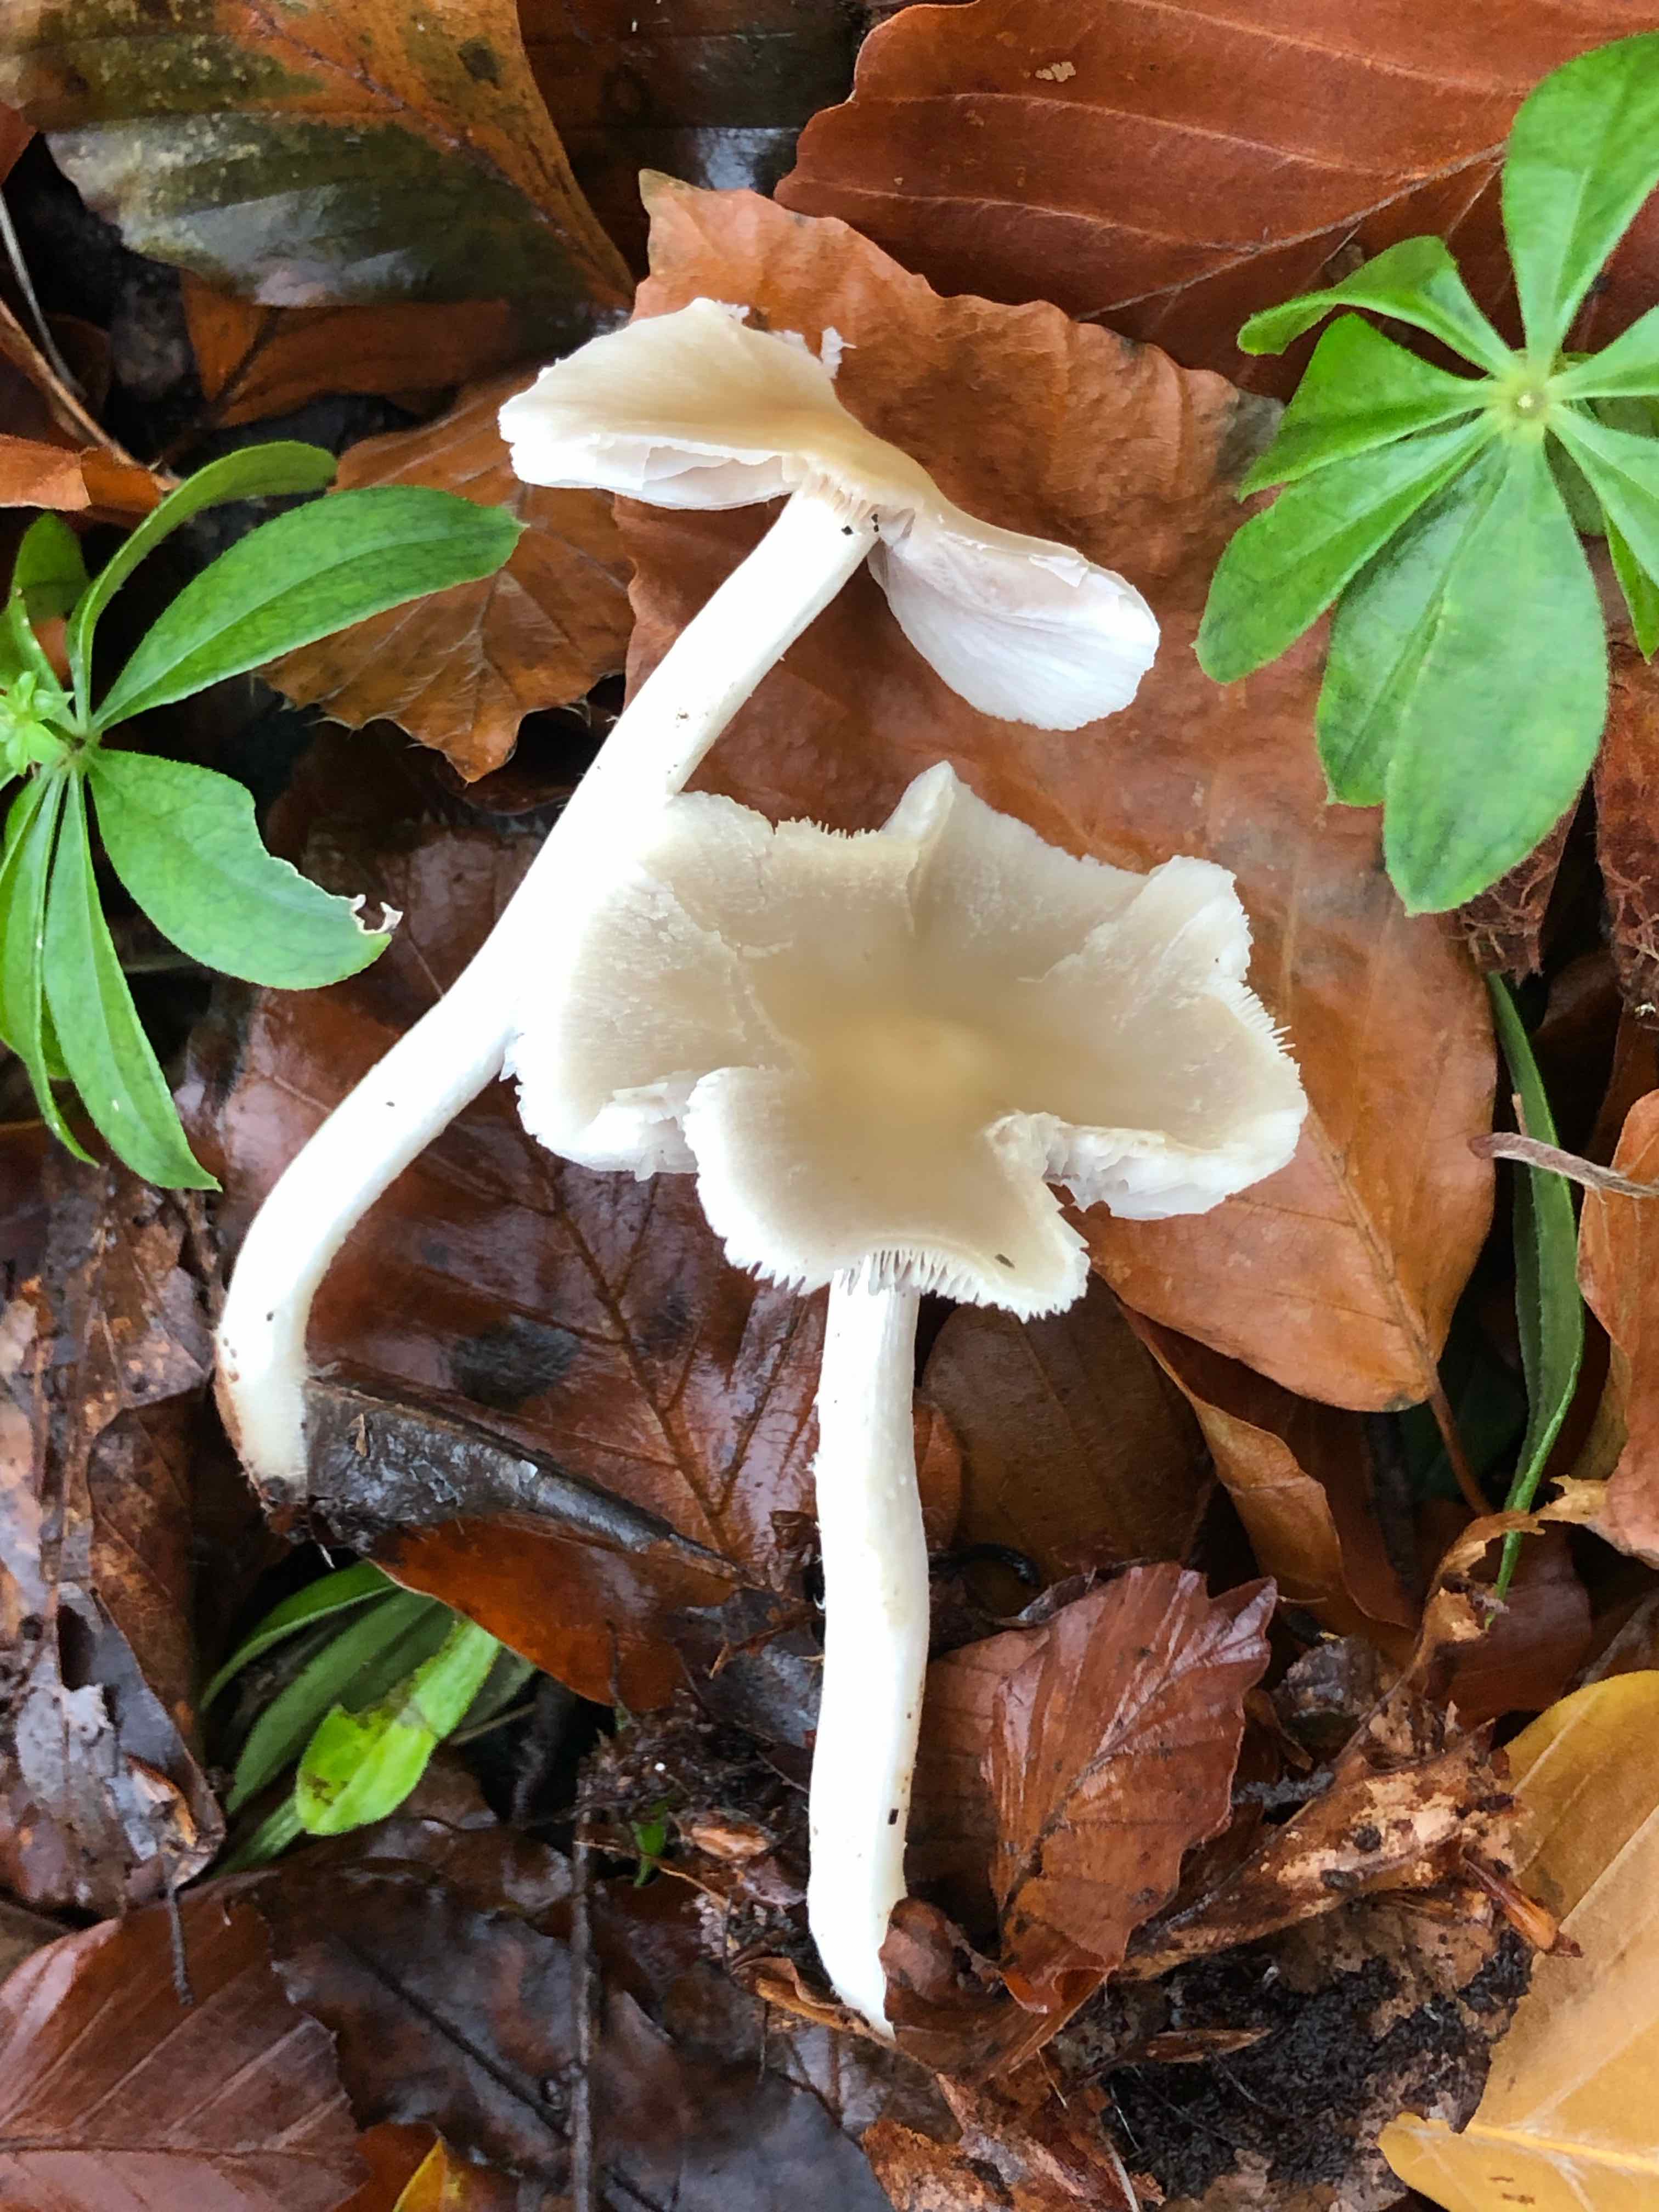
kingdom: Fungi
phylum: Basidiomycota
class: Agaricomycetes
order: Agaricales
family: Psathyrellaceae
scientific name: Psathyrellaceae
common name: mørkhatfamilien
